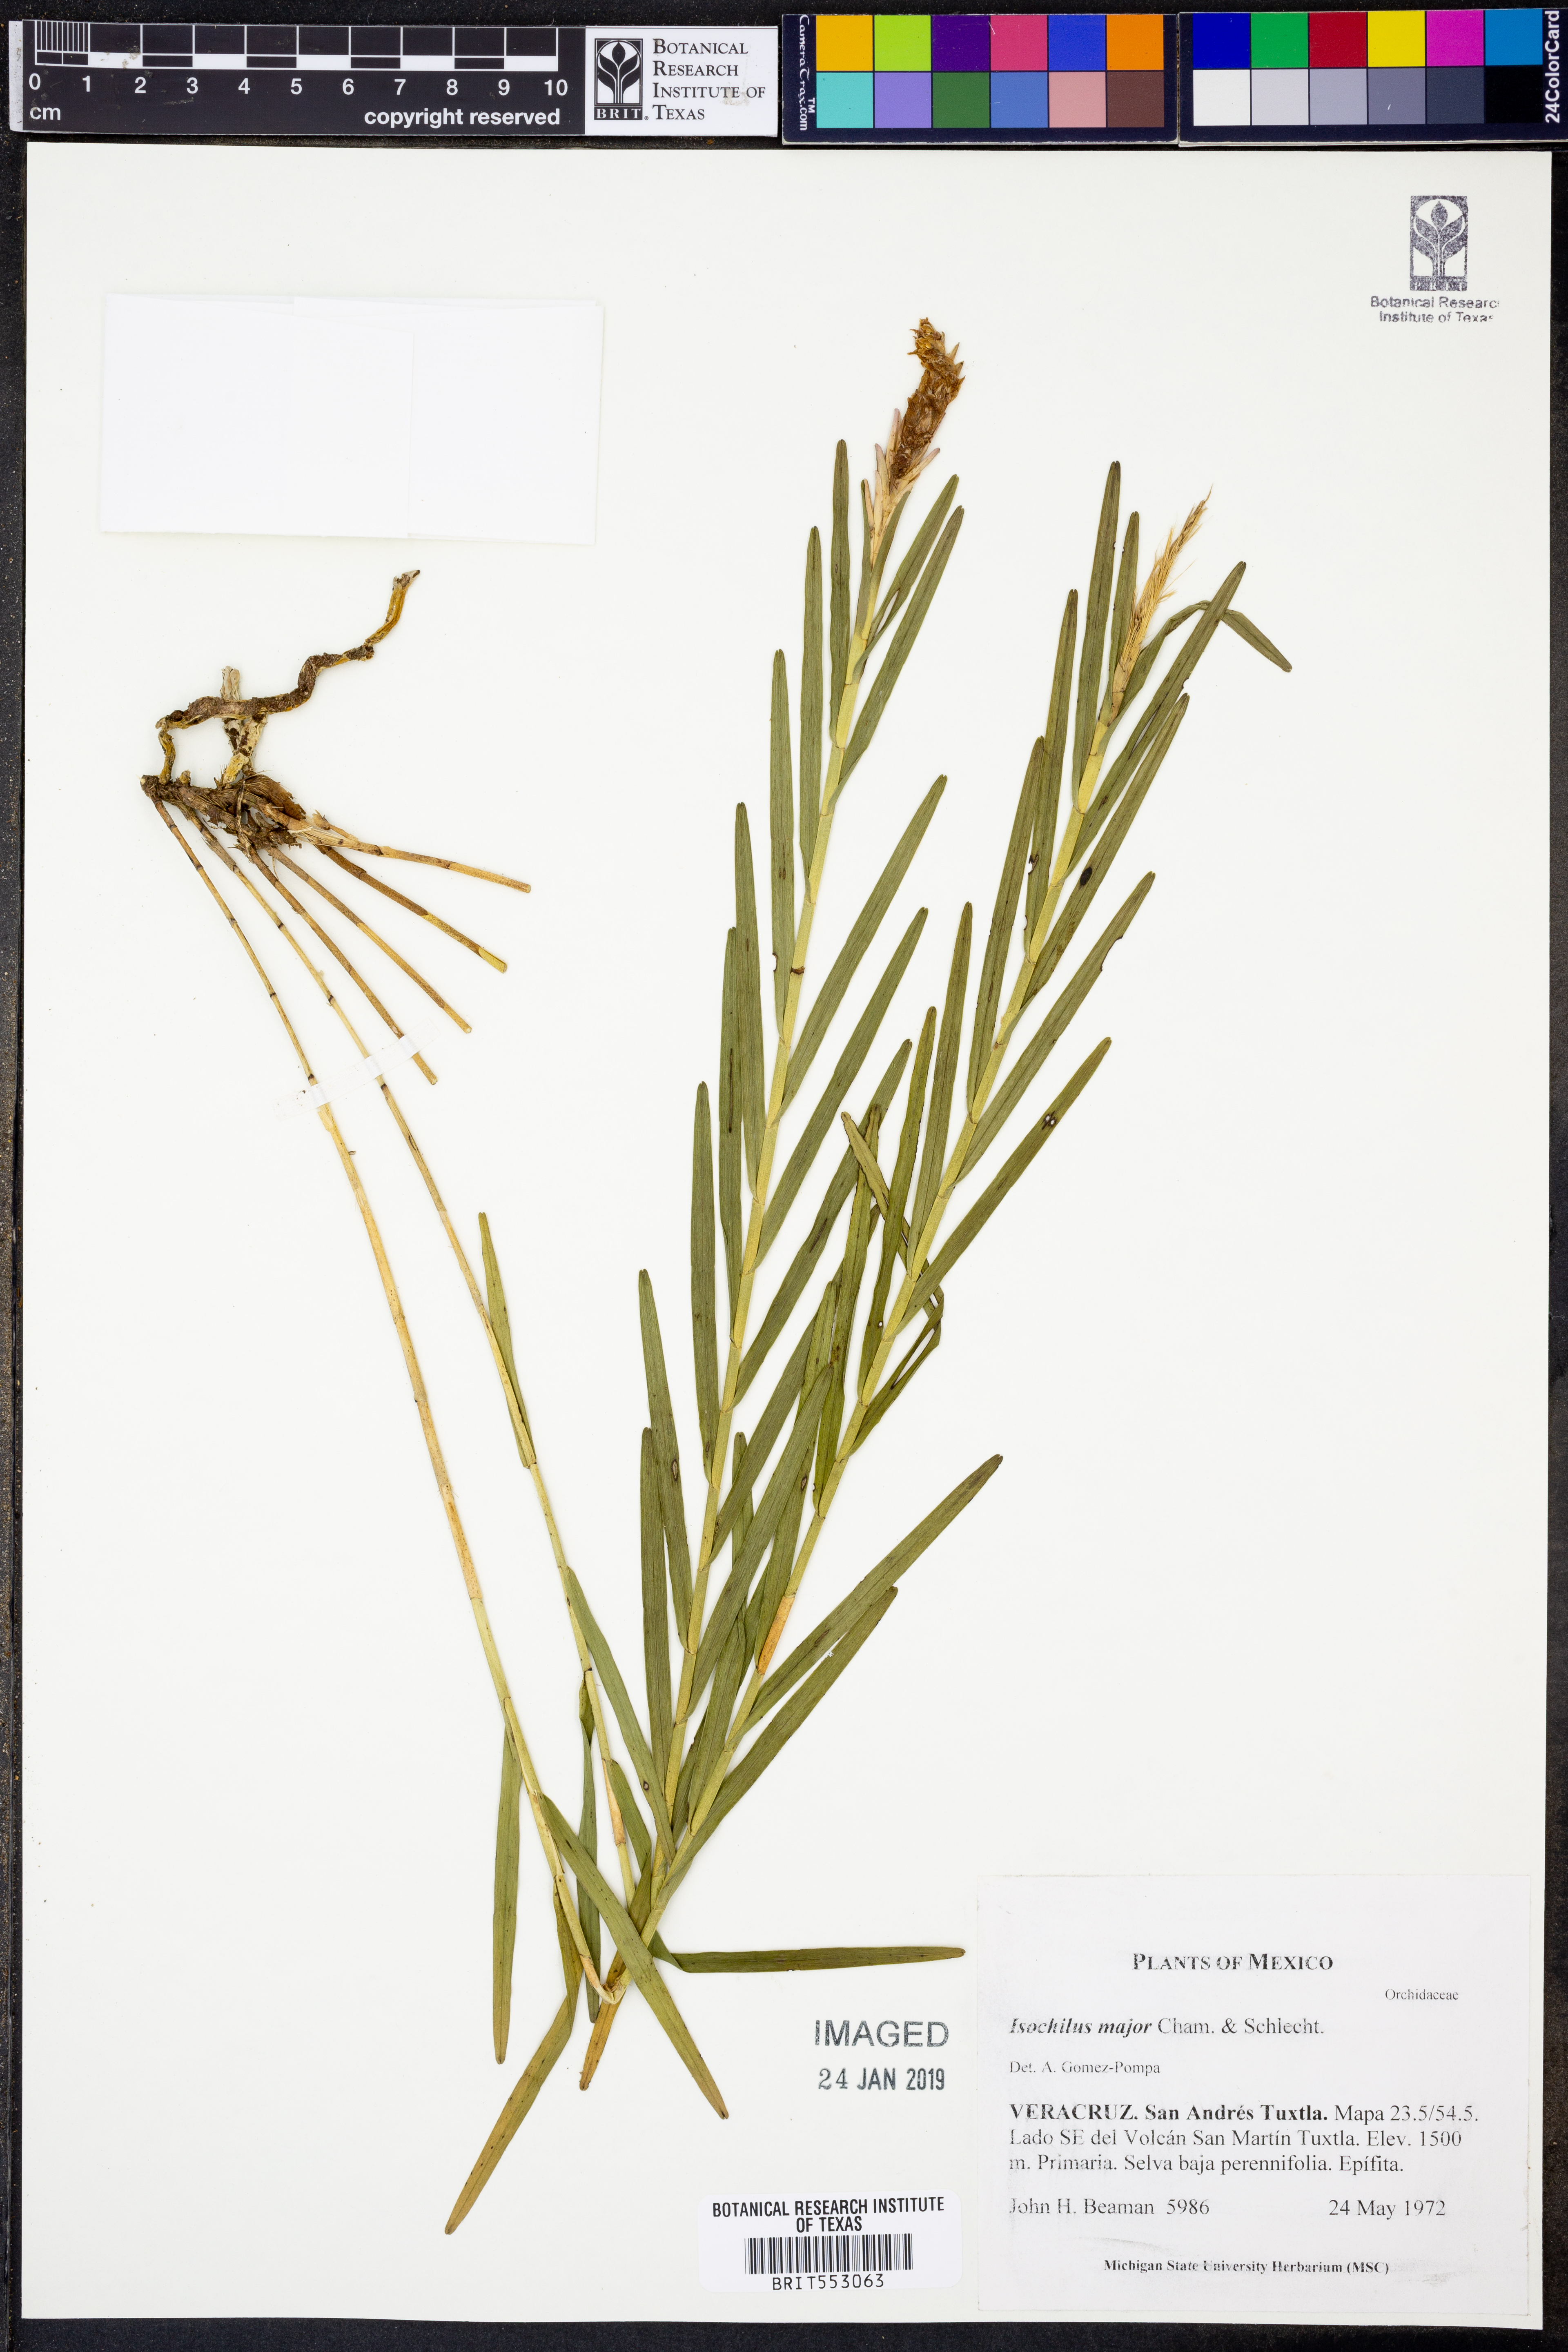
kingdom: Plantae
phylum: Tracheophyta
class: Liliopsida
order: Asparagales
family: Orchidaceae
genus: Isochilus
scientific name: Isochilus major
